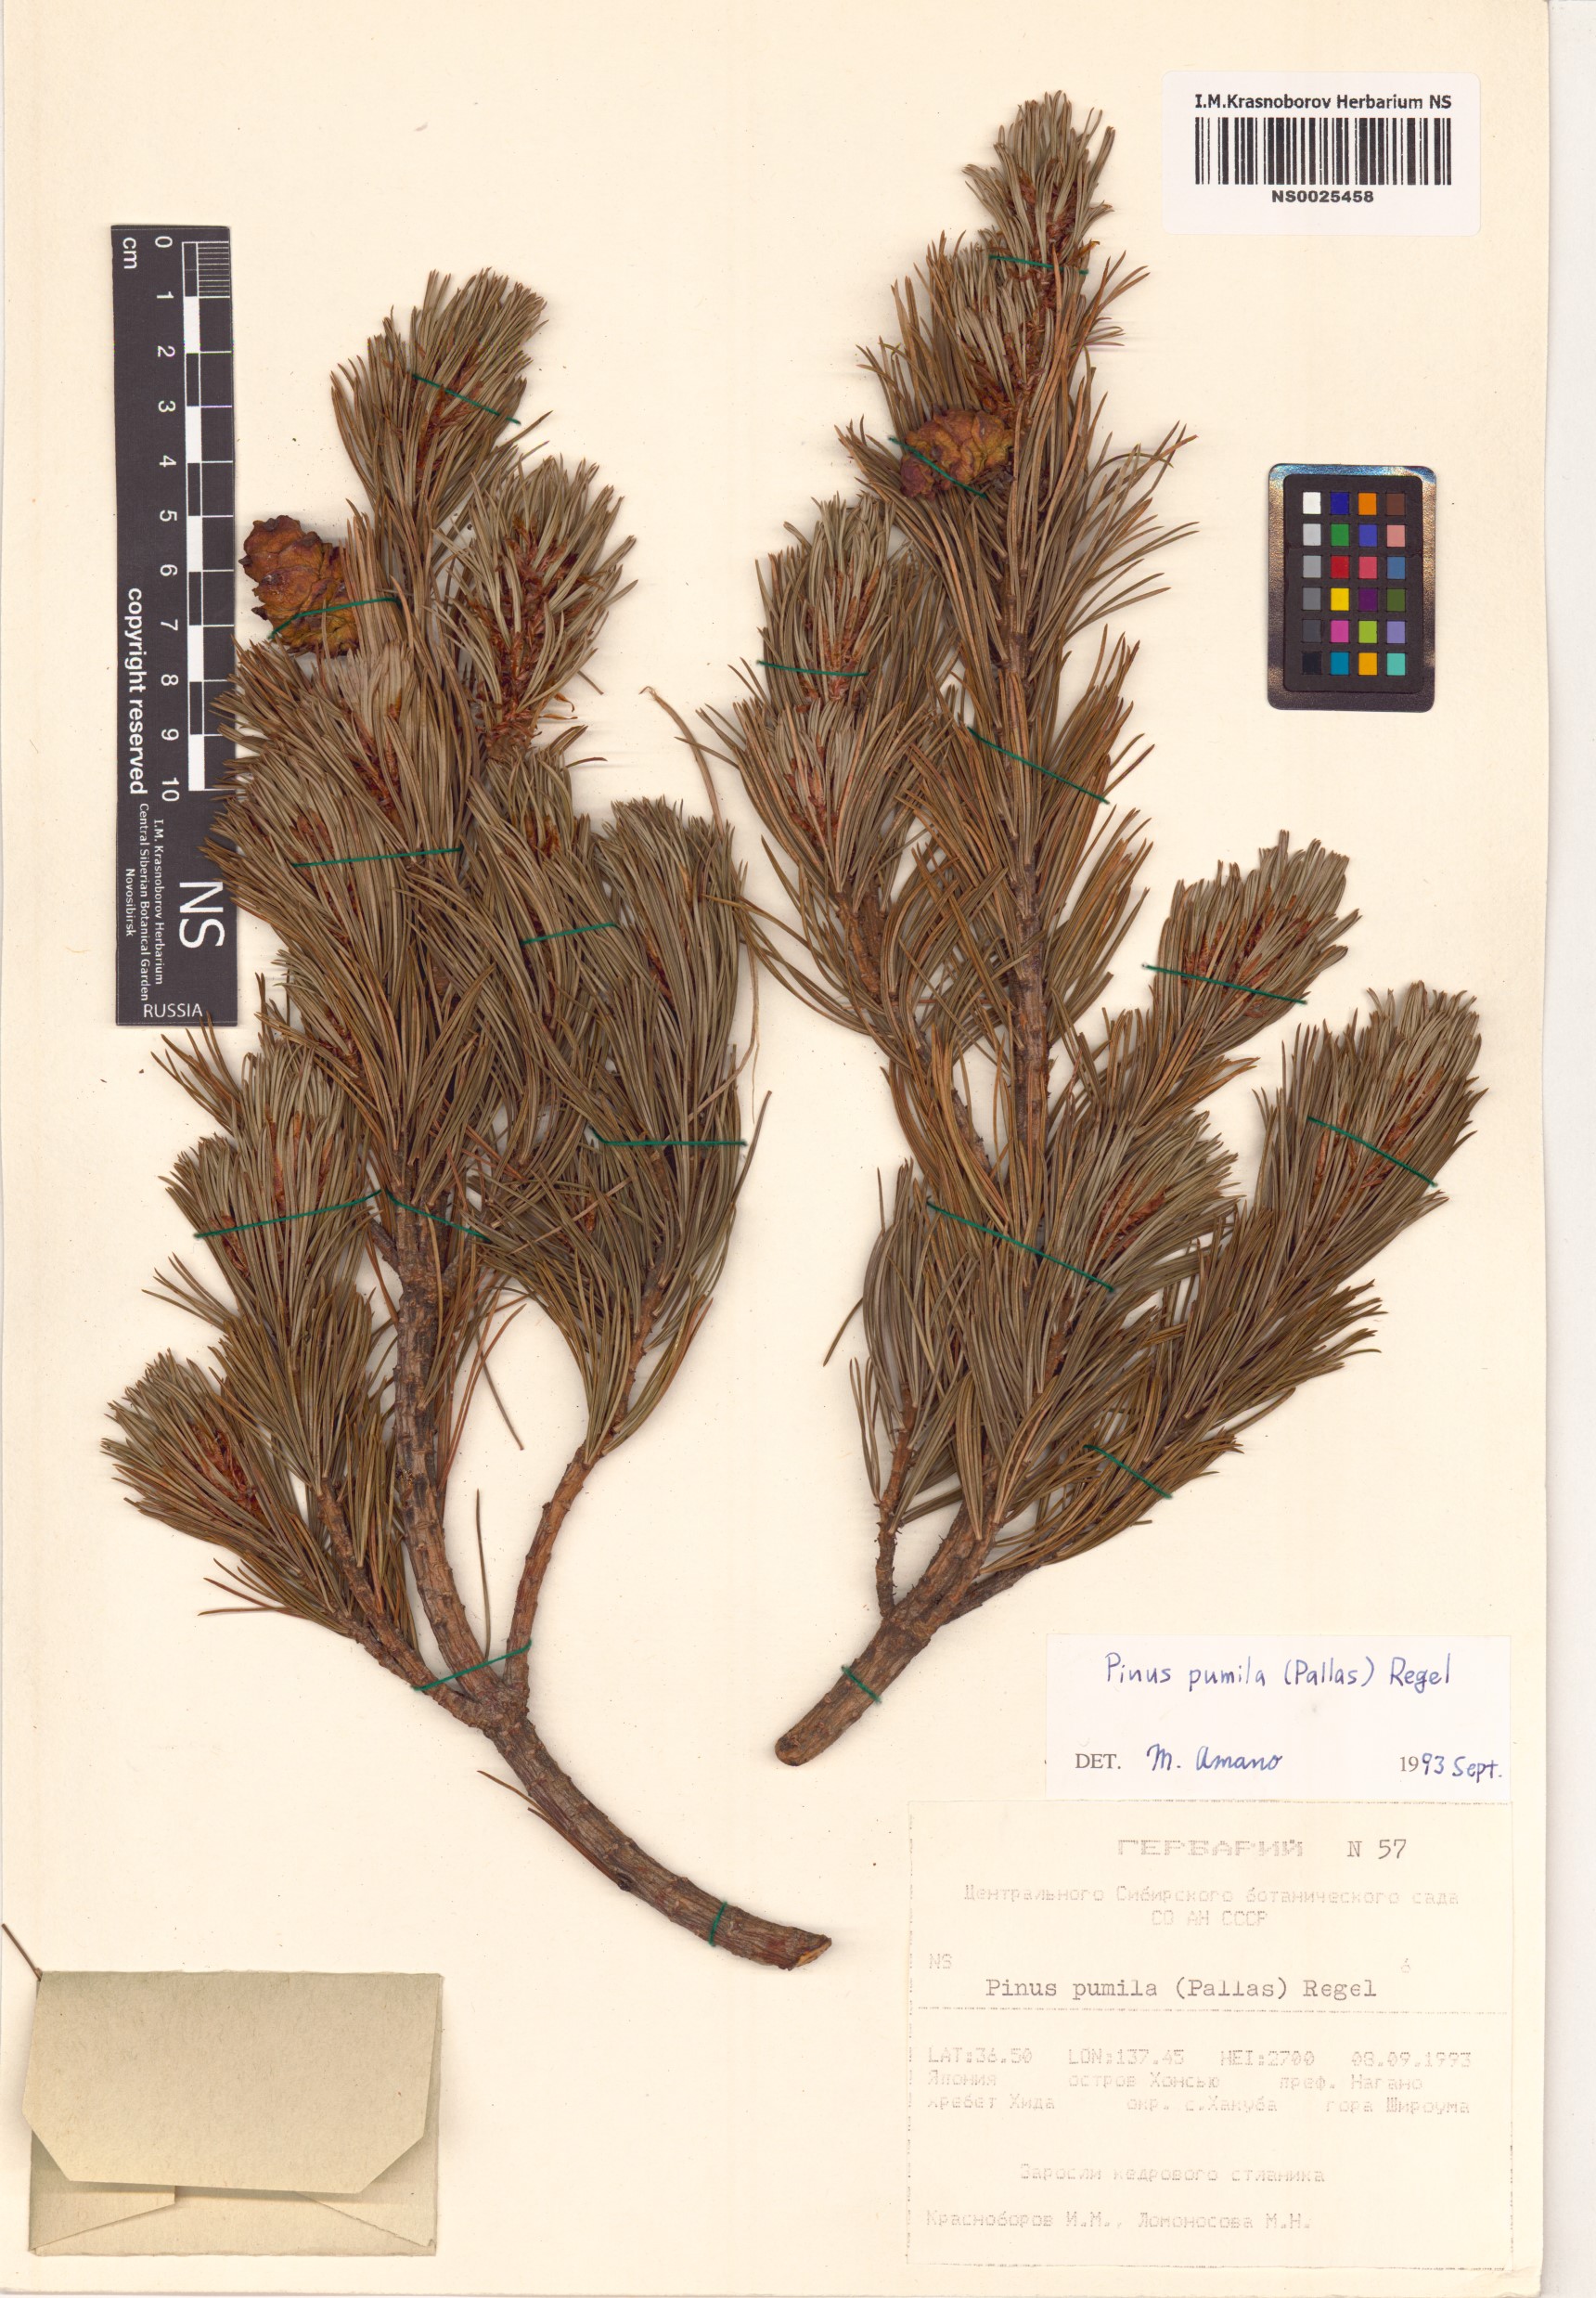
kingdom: Plantae
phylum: Tracheophyta
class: Pinopsida
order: Pinales
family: Pinaceae
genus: Pinus
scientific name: Pinus pumila
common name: Dwarf siberian pine
